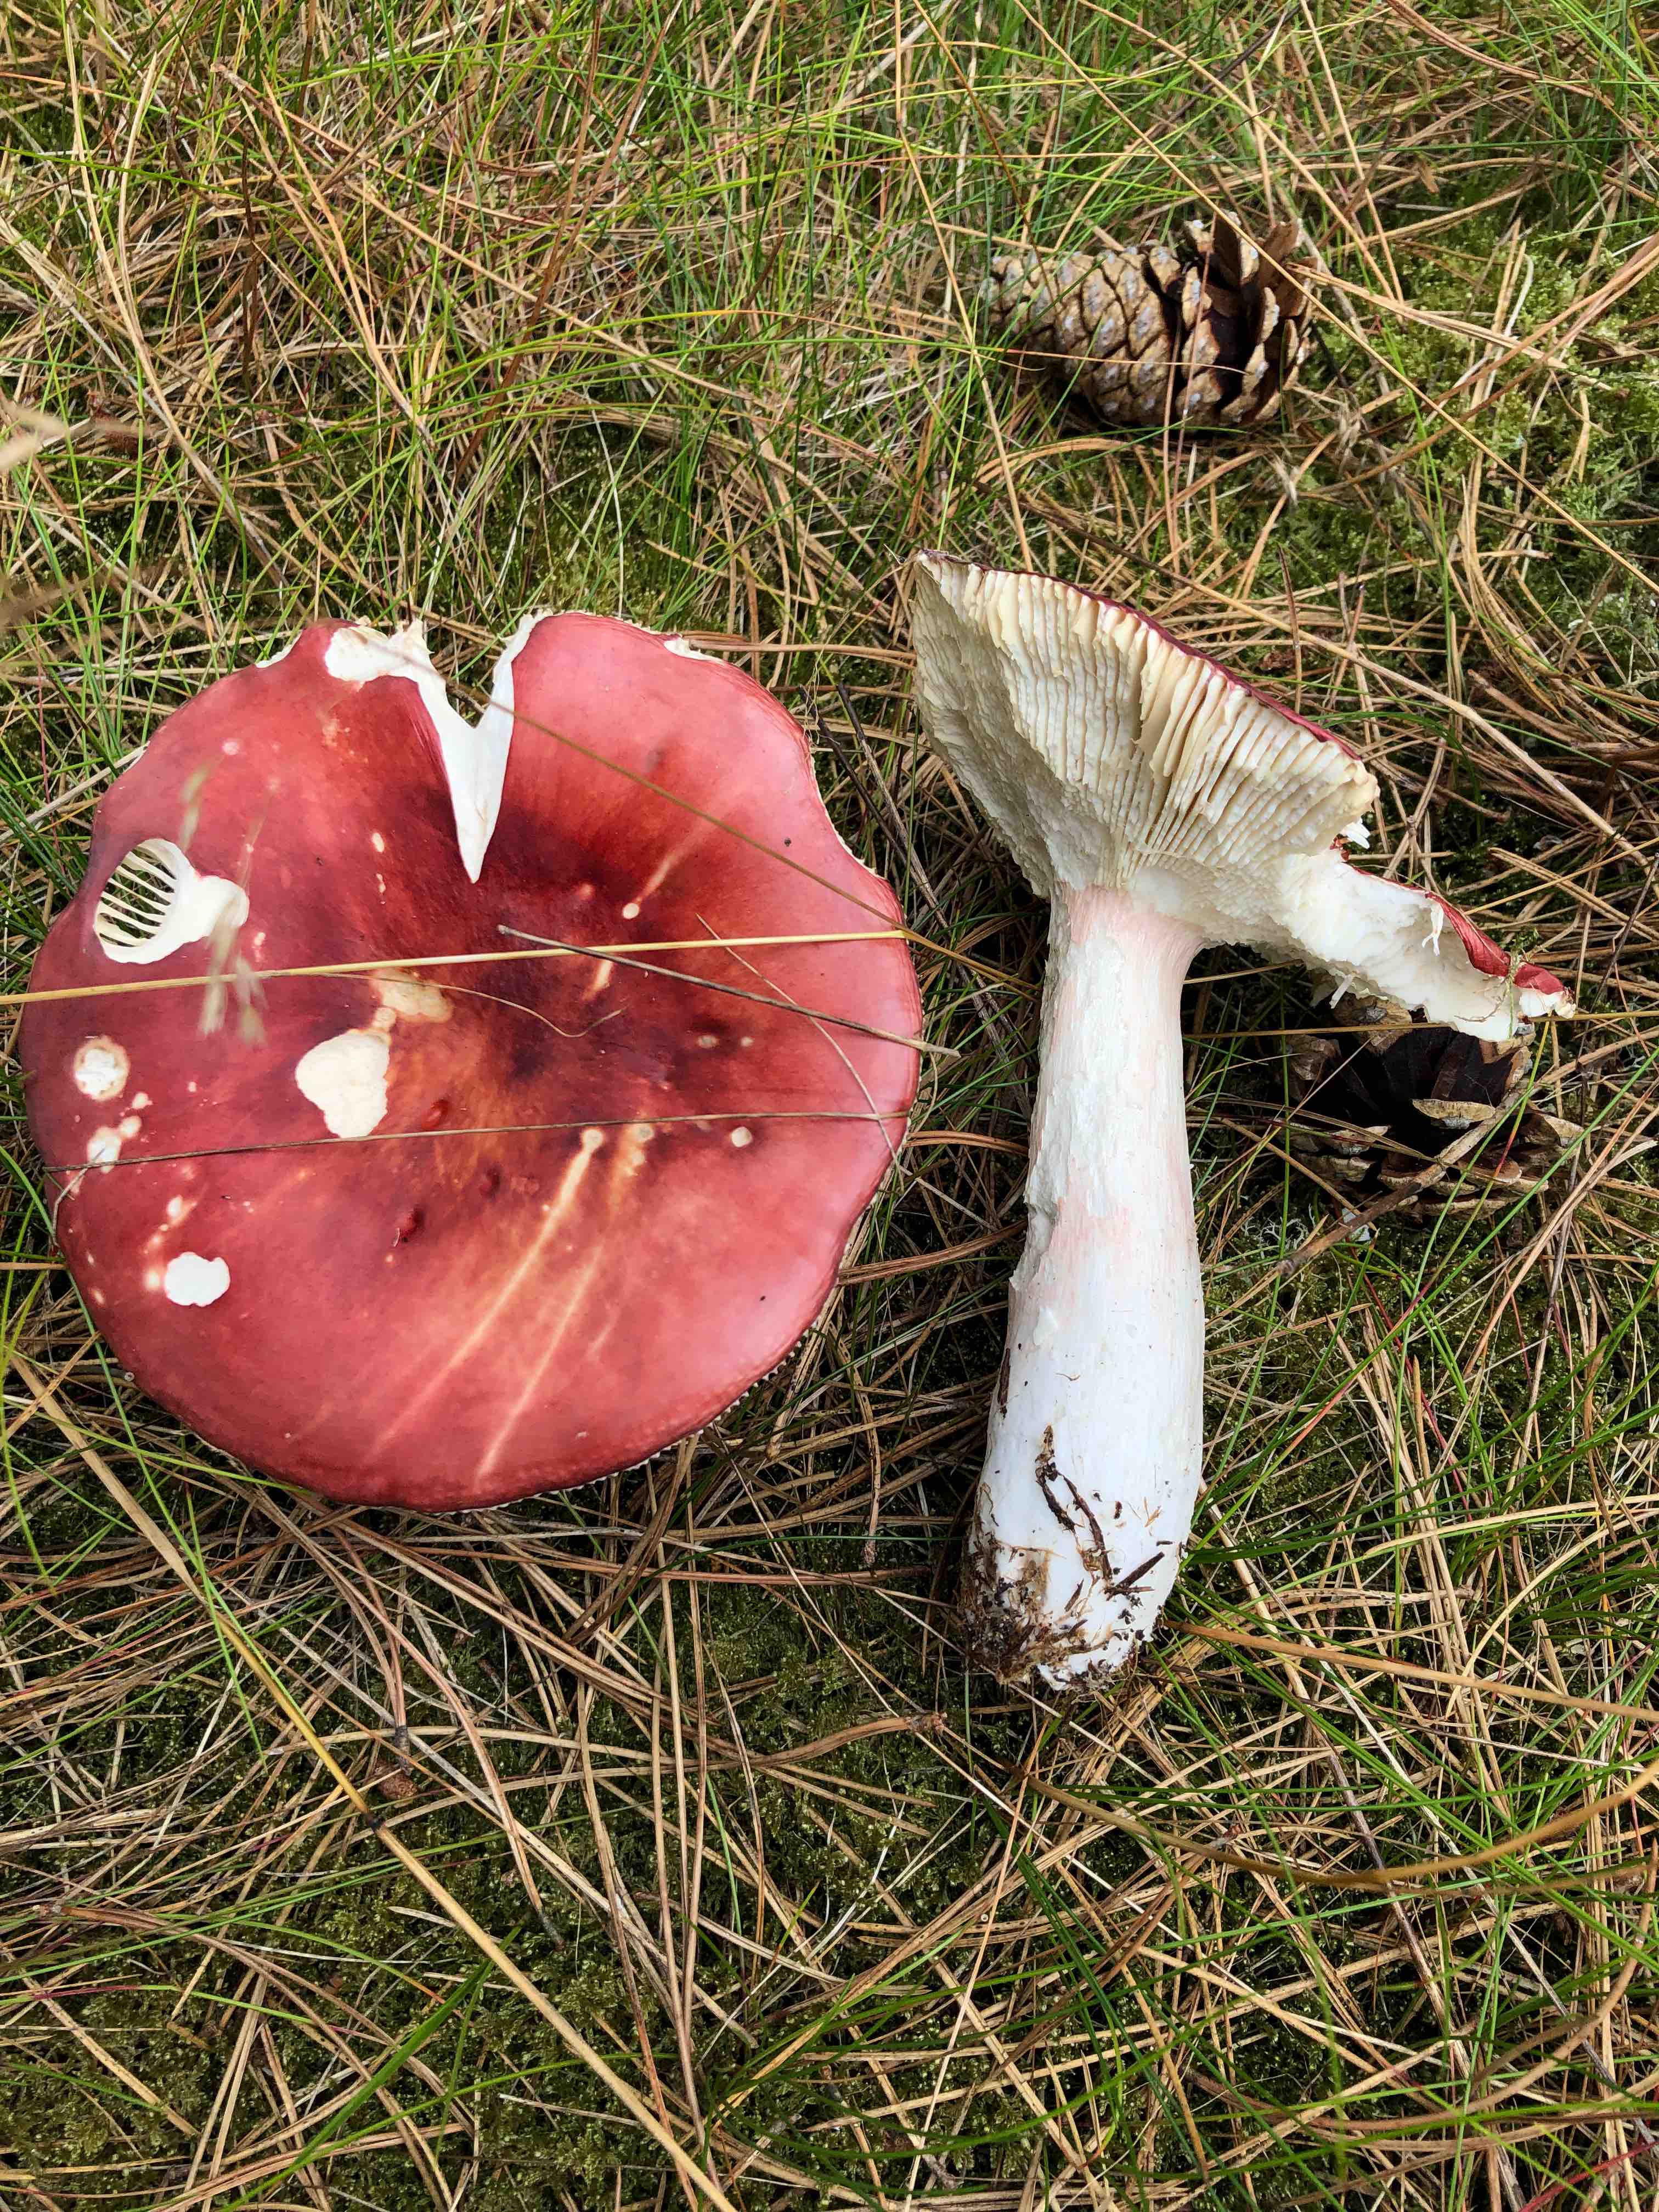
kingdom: Fungi
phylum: Basidiomycota
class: Agaricomycetes
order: Russulales
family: Russulaceae
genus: Russula
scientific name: Russula paludosa
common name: prægtig skørhat
